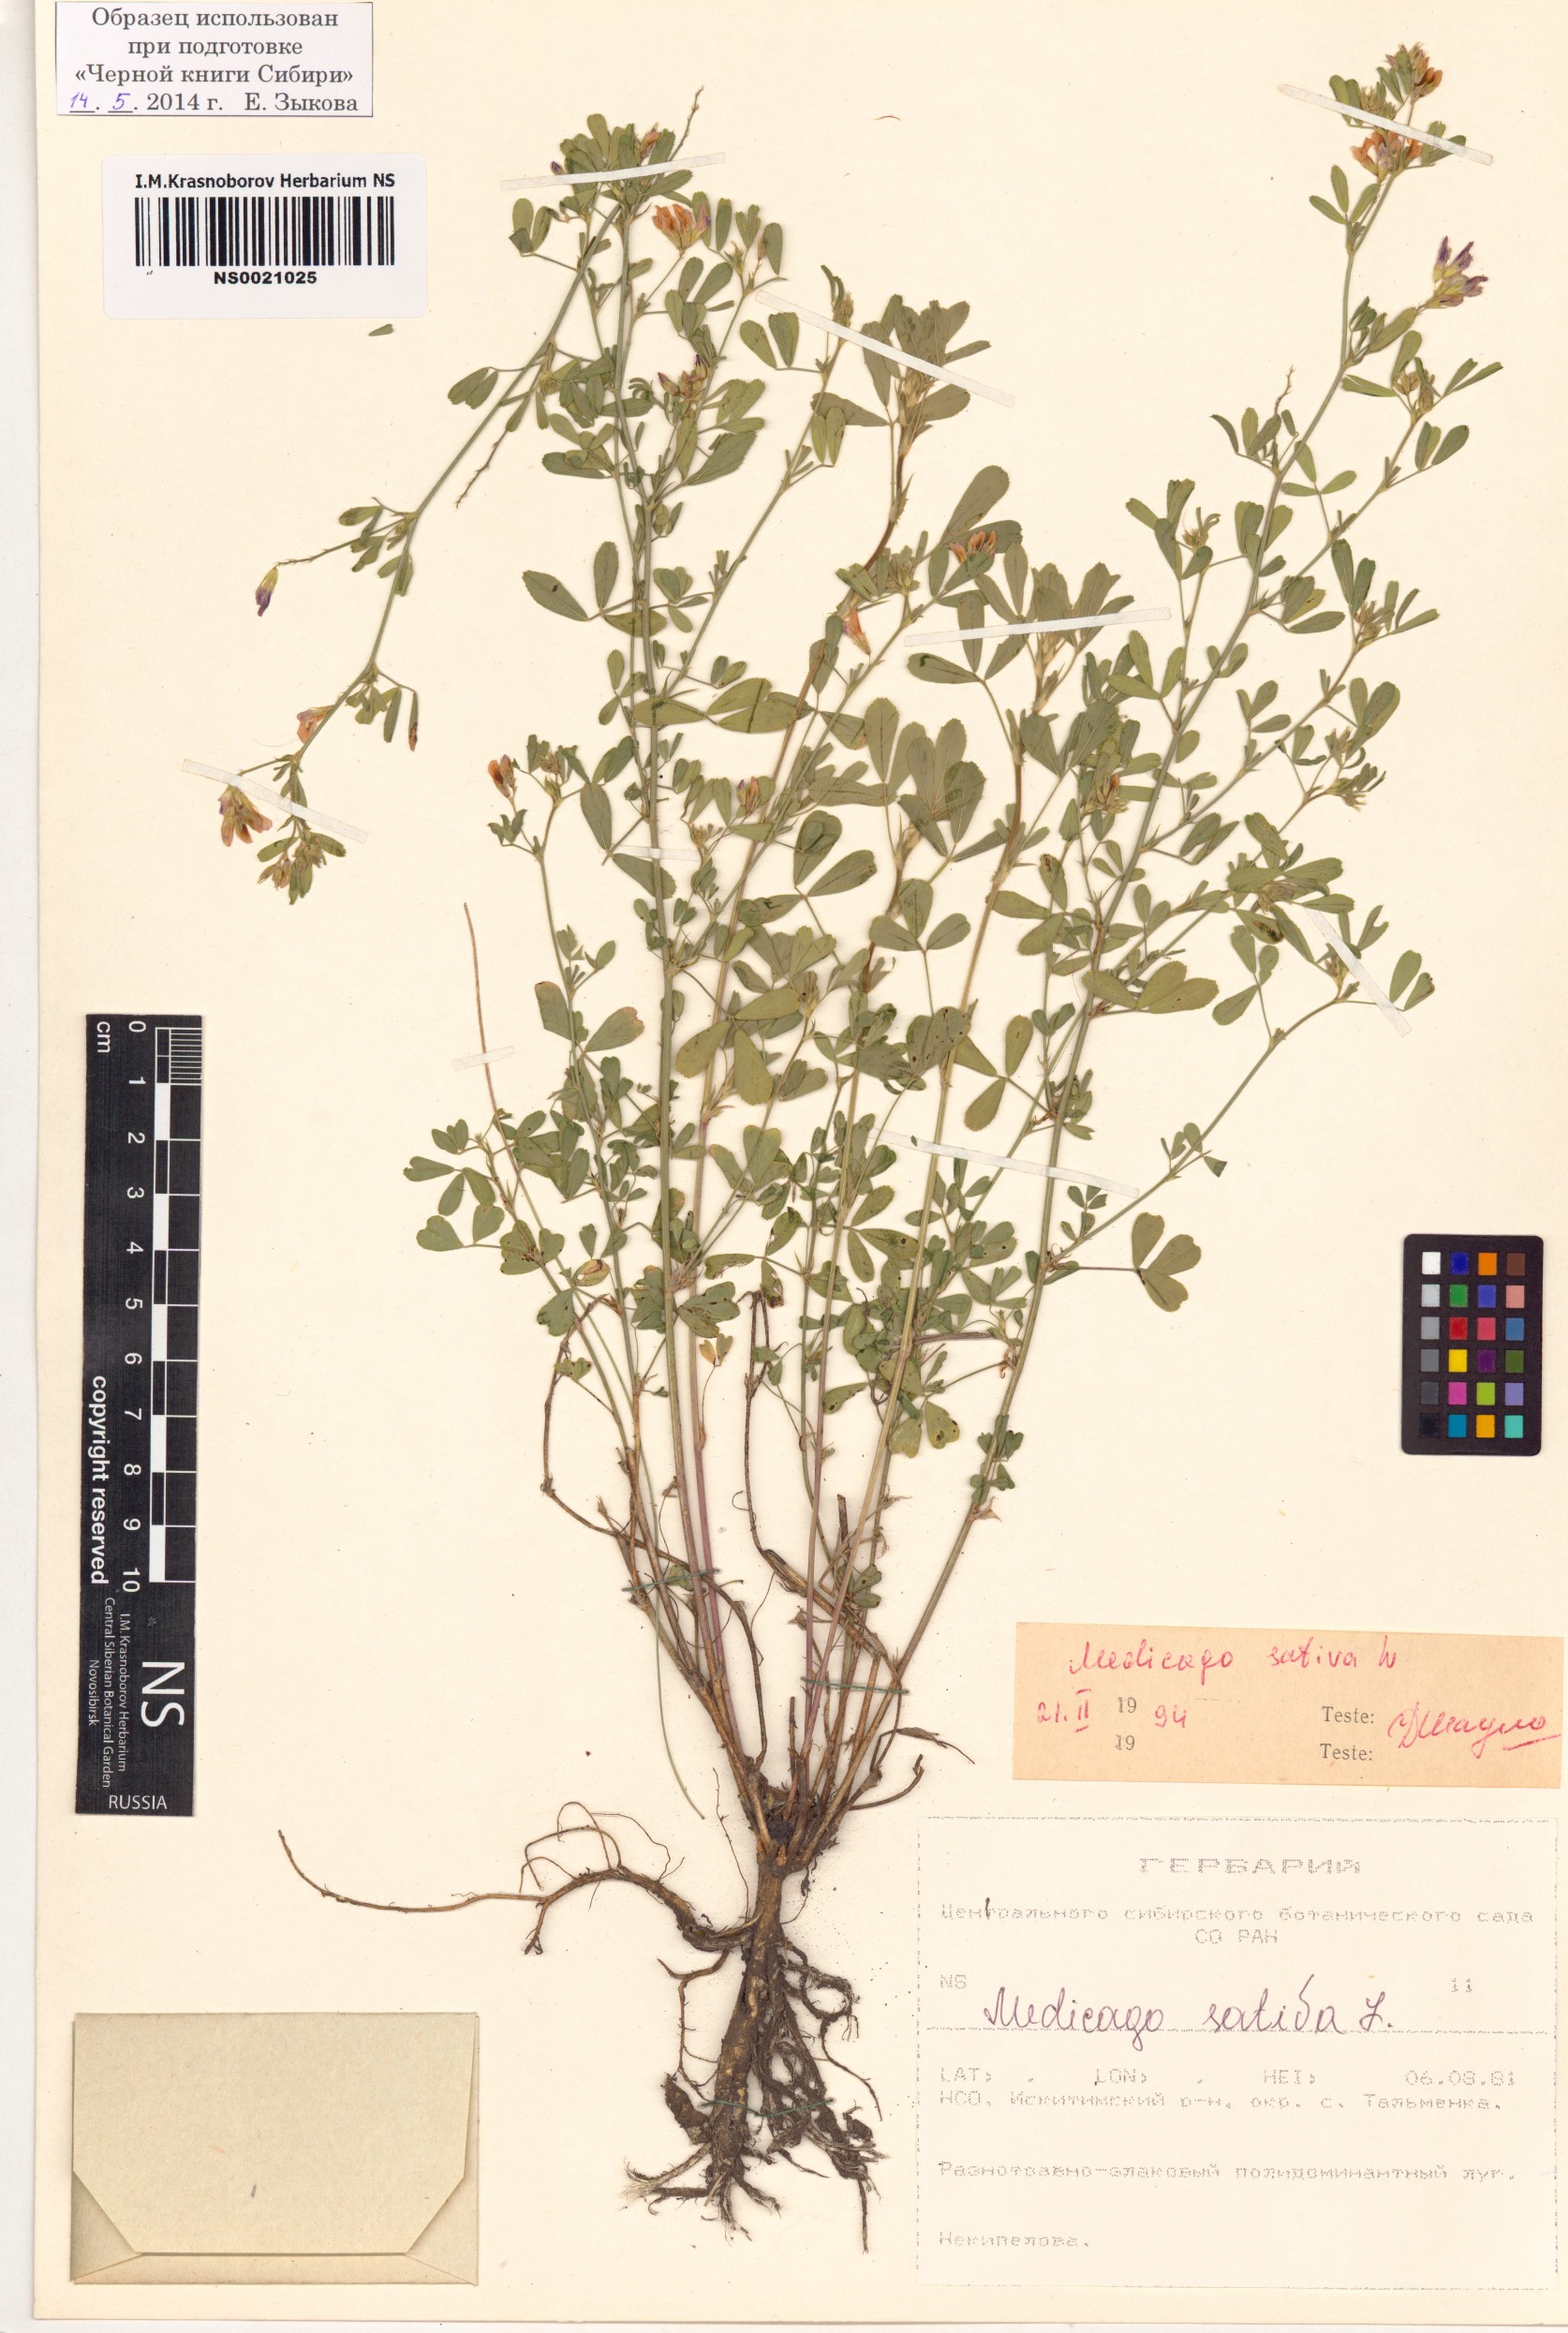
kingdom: Plantae
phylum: Tracheophyta
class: Magnoliopsida
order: Fabales
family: Fabaceae
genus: Medicago
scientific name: Medicago sativa
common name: Alfalfa
